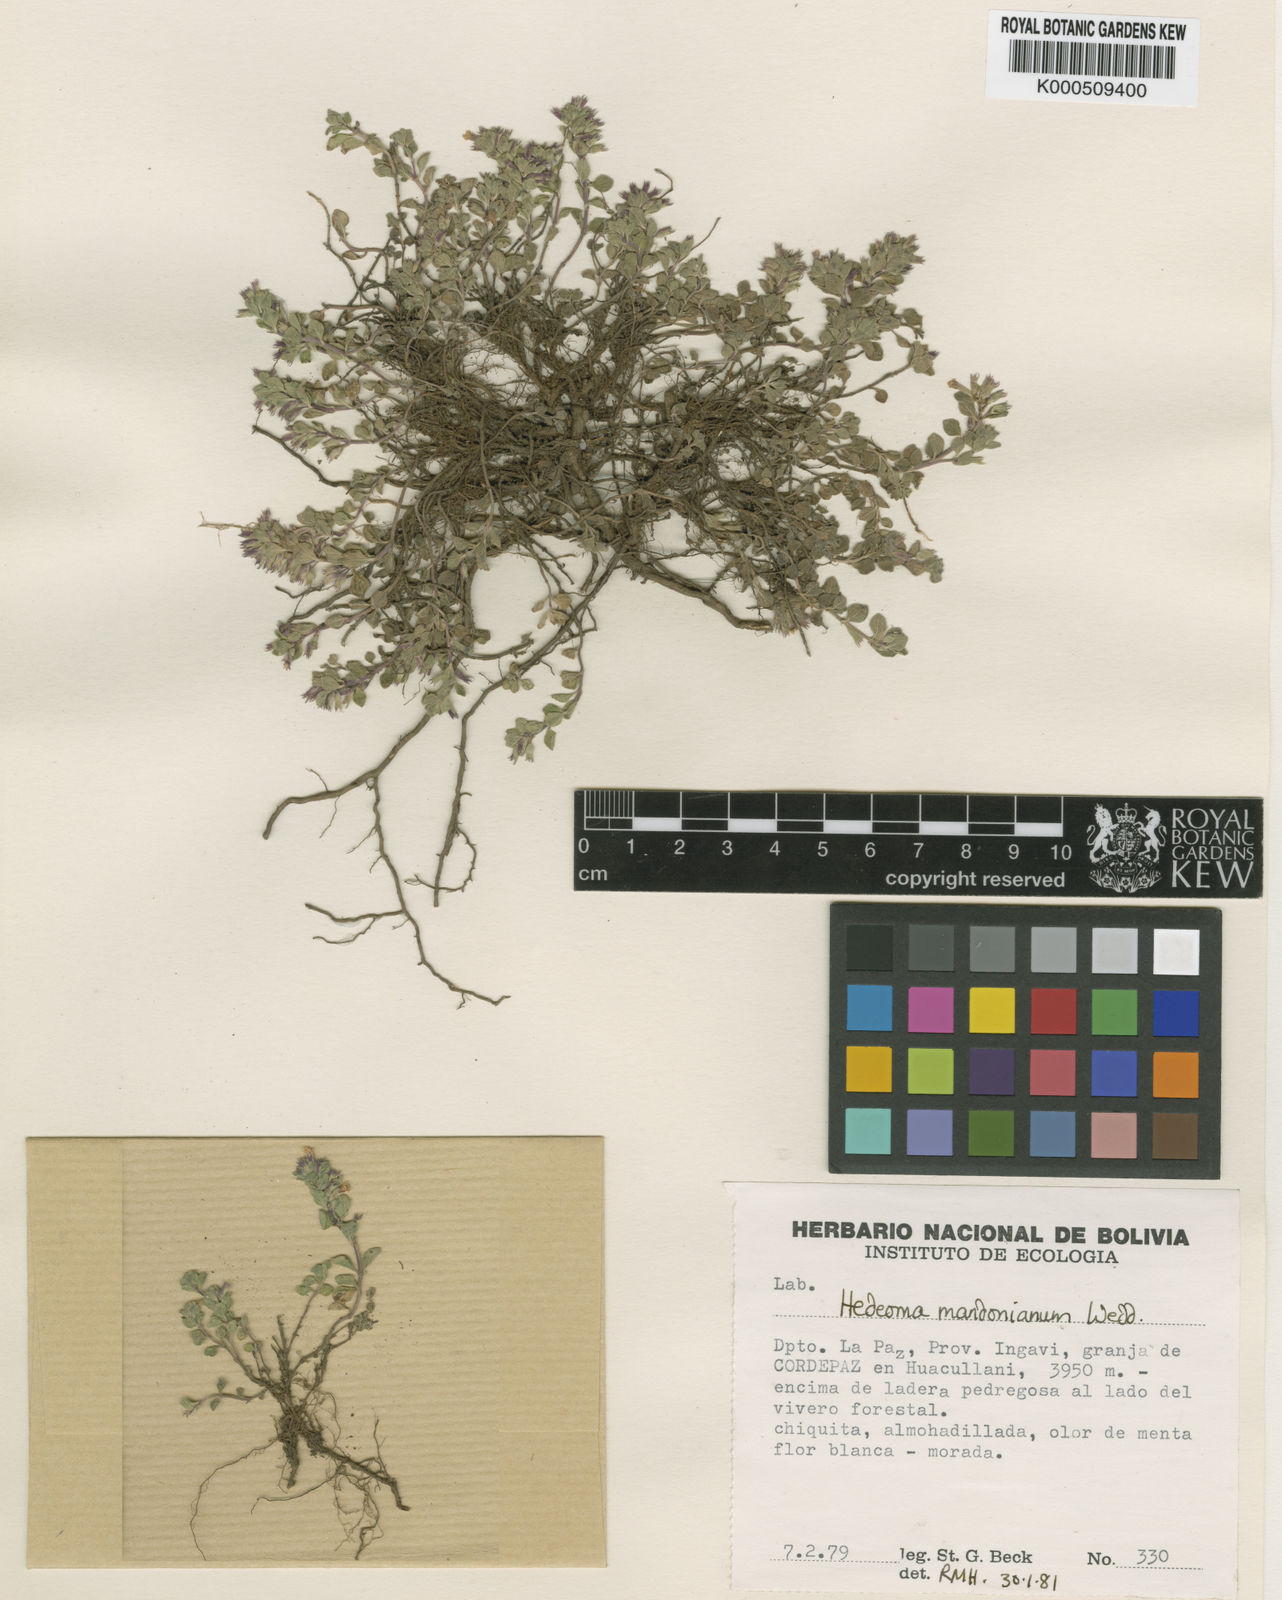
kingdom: Plantae
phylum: Tracheophyta
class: Magnoliopsida
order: Lamiales
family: Lamiaceae
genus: Hedeoma
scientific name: Hedeoma mandoniana
